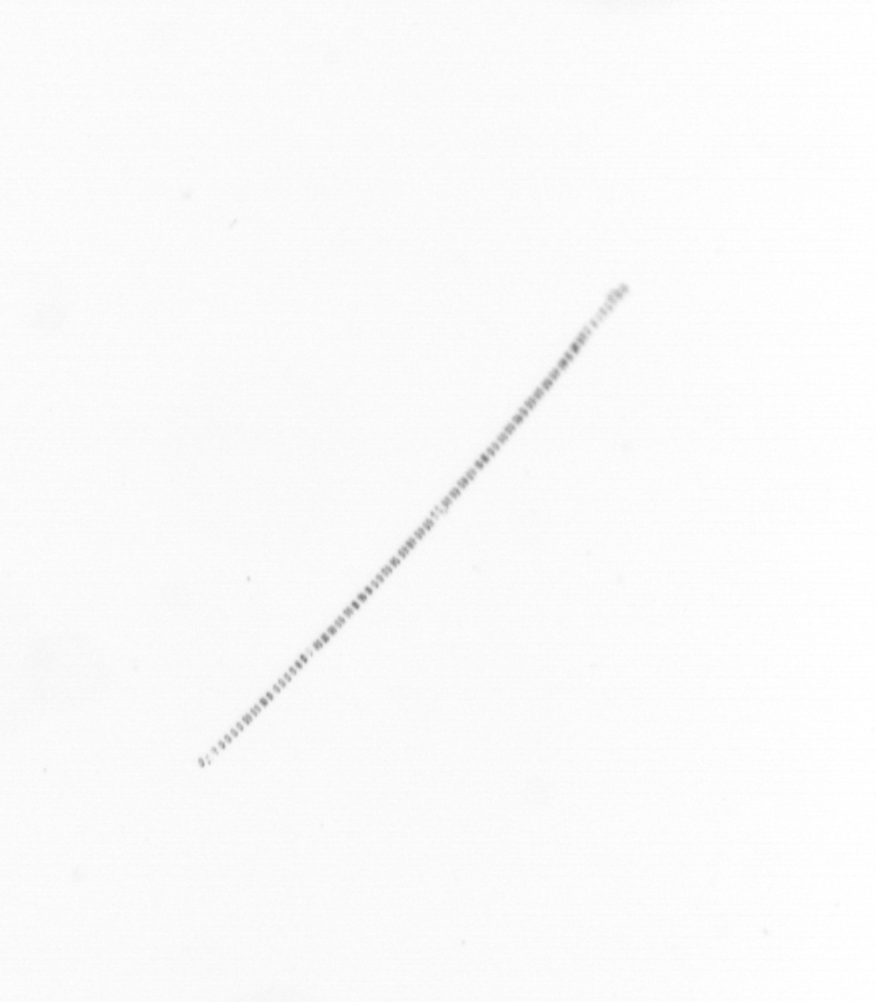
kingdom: Chromista
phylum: Ochrophyta
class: Bacillariophyceae
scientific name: Bacillariophyceae
